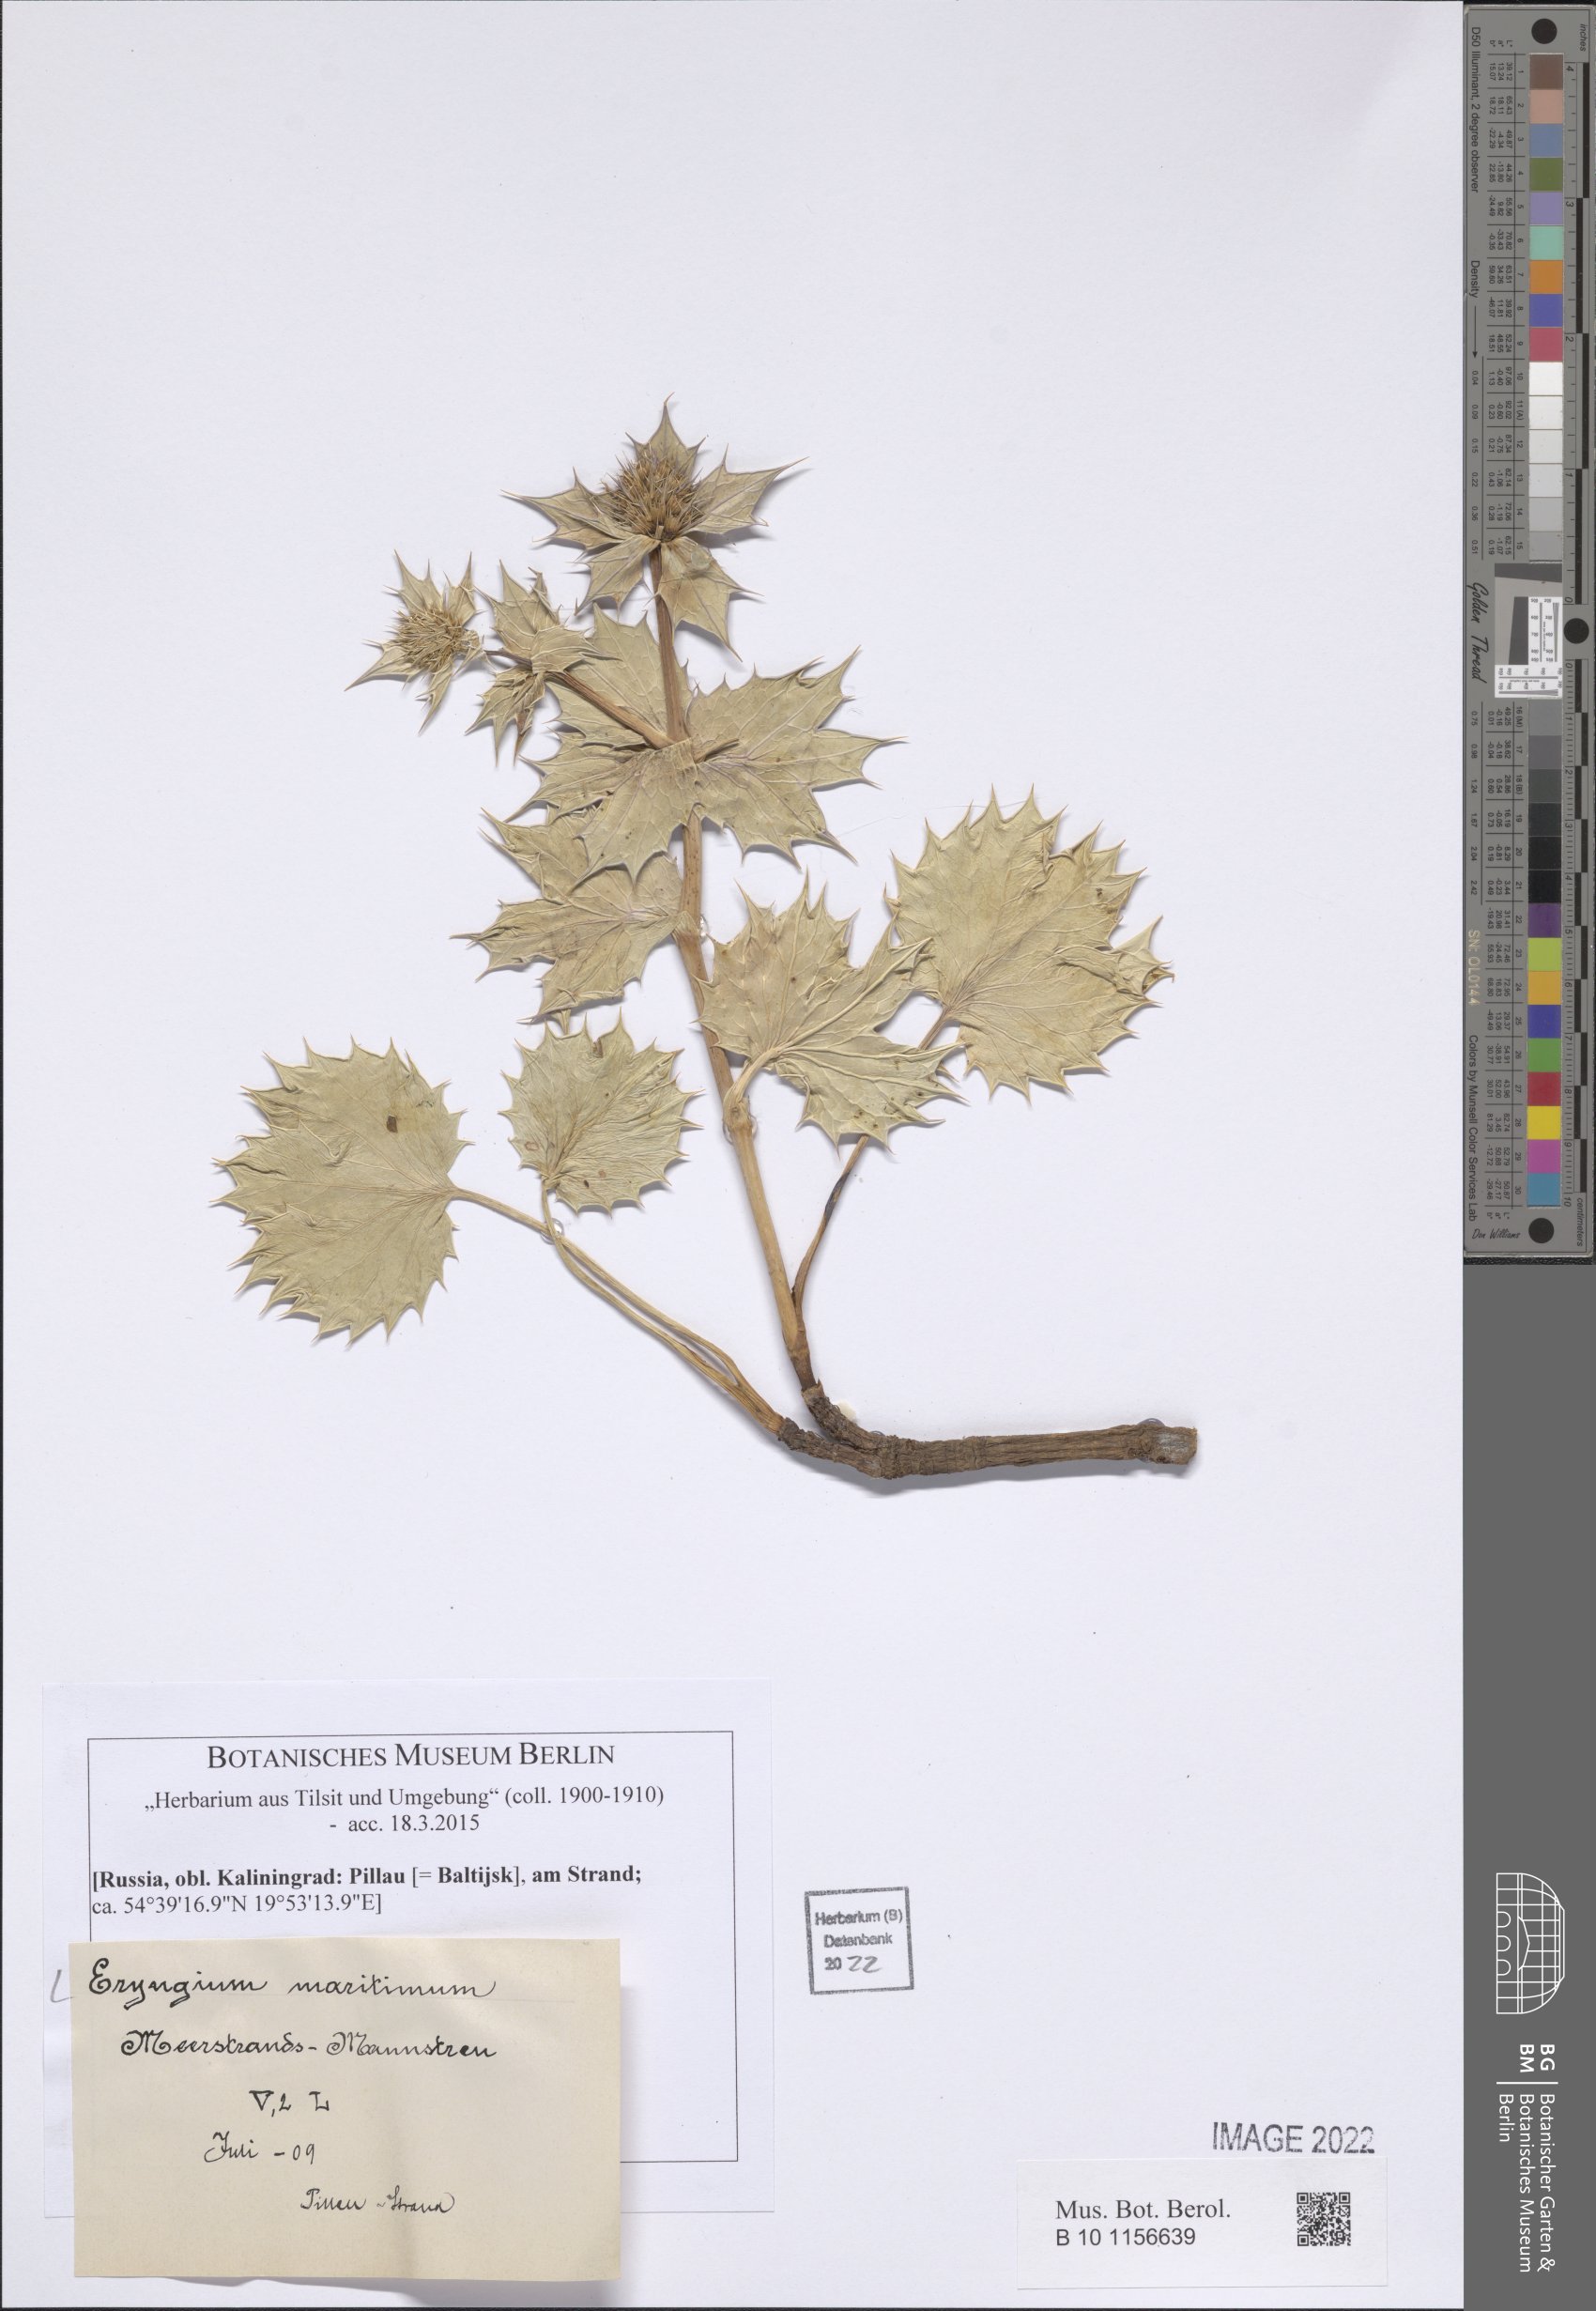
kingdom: Plantae
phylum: Tracheophyta
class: Magnoliopsida
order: Apiales
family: Apiaceae
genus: Eryngium
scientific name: Eryngium maritimum
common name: Sea-holly
